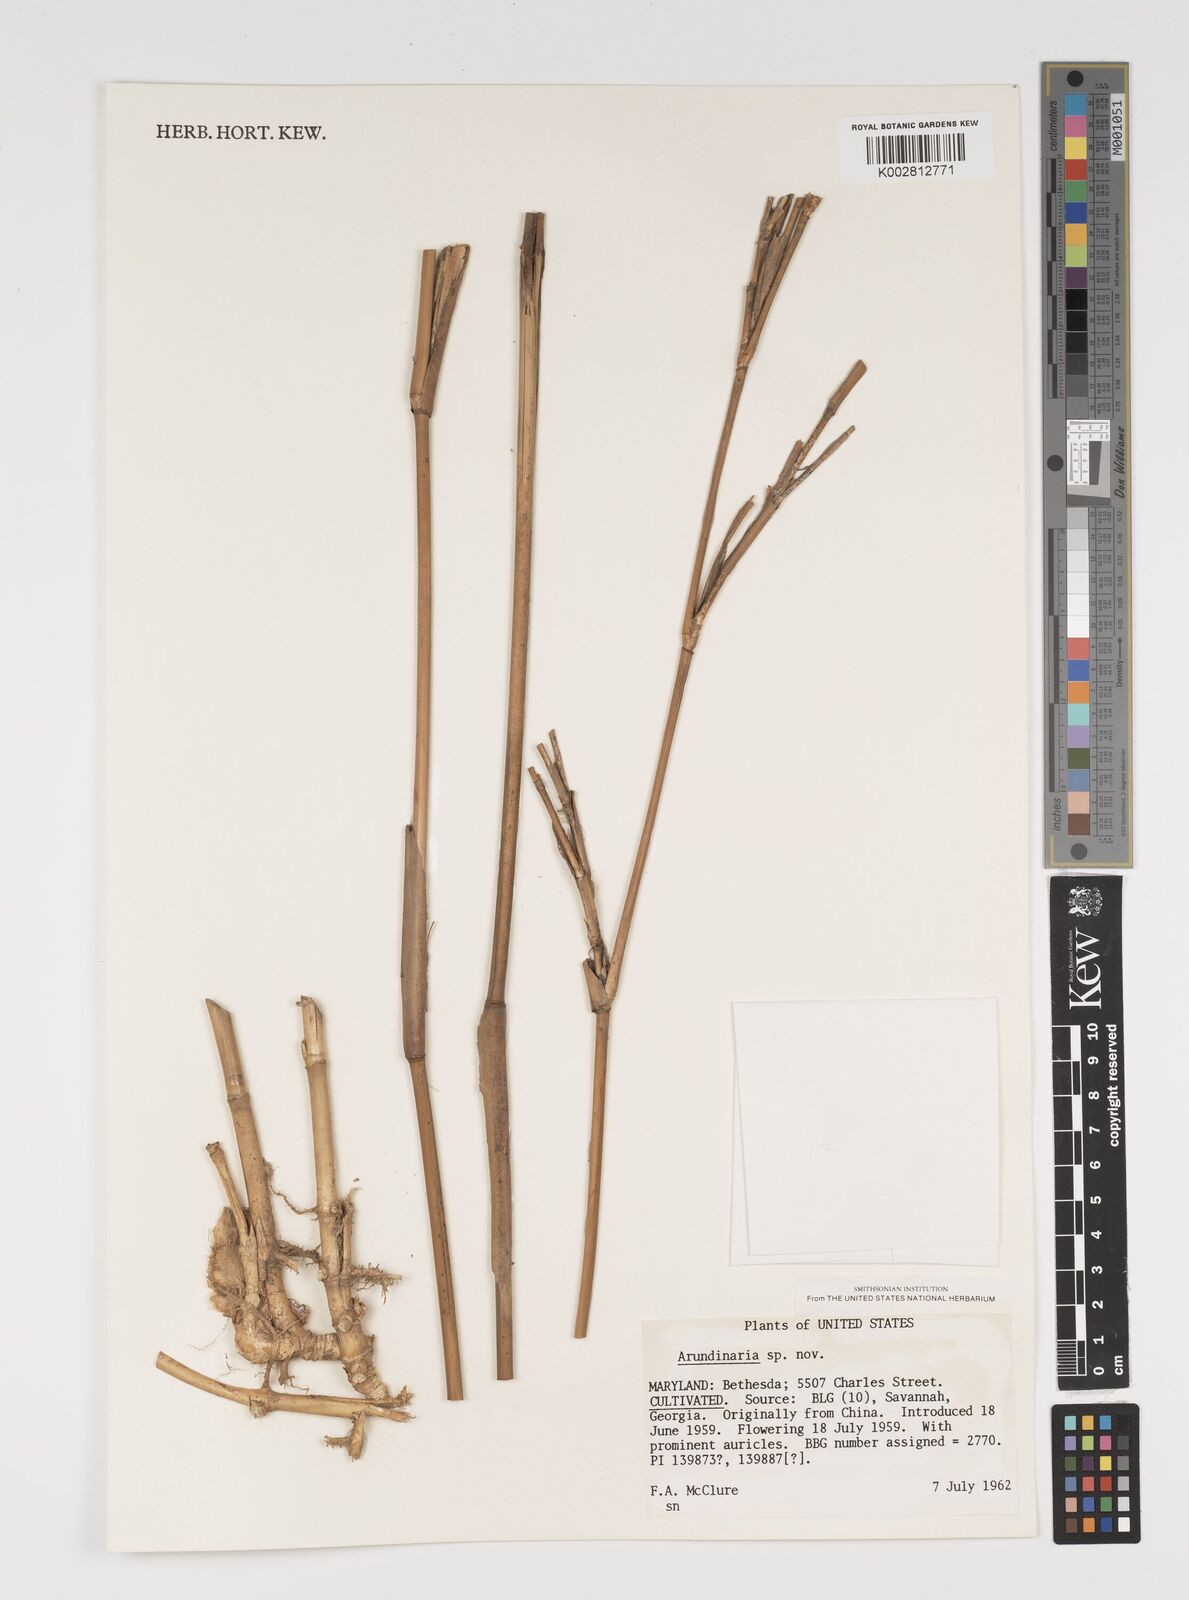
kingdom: Plantae
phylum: Tracheophyta
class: Liliopsida
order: Poales
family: Poaceae
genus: Arundinaria
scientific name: Arundinaria
